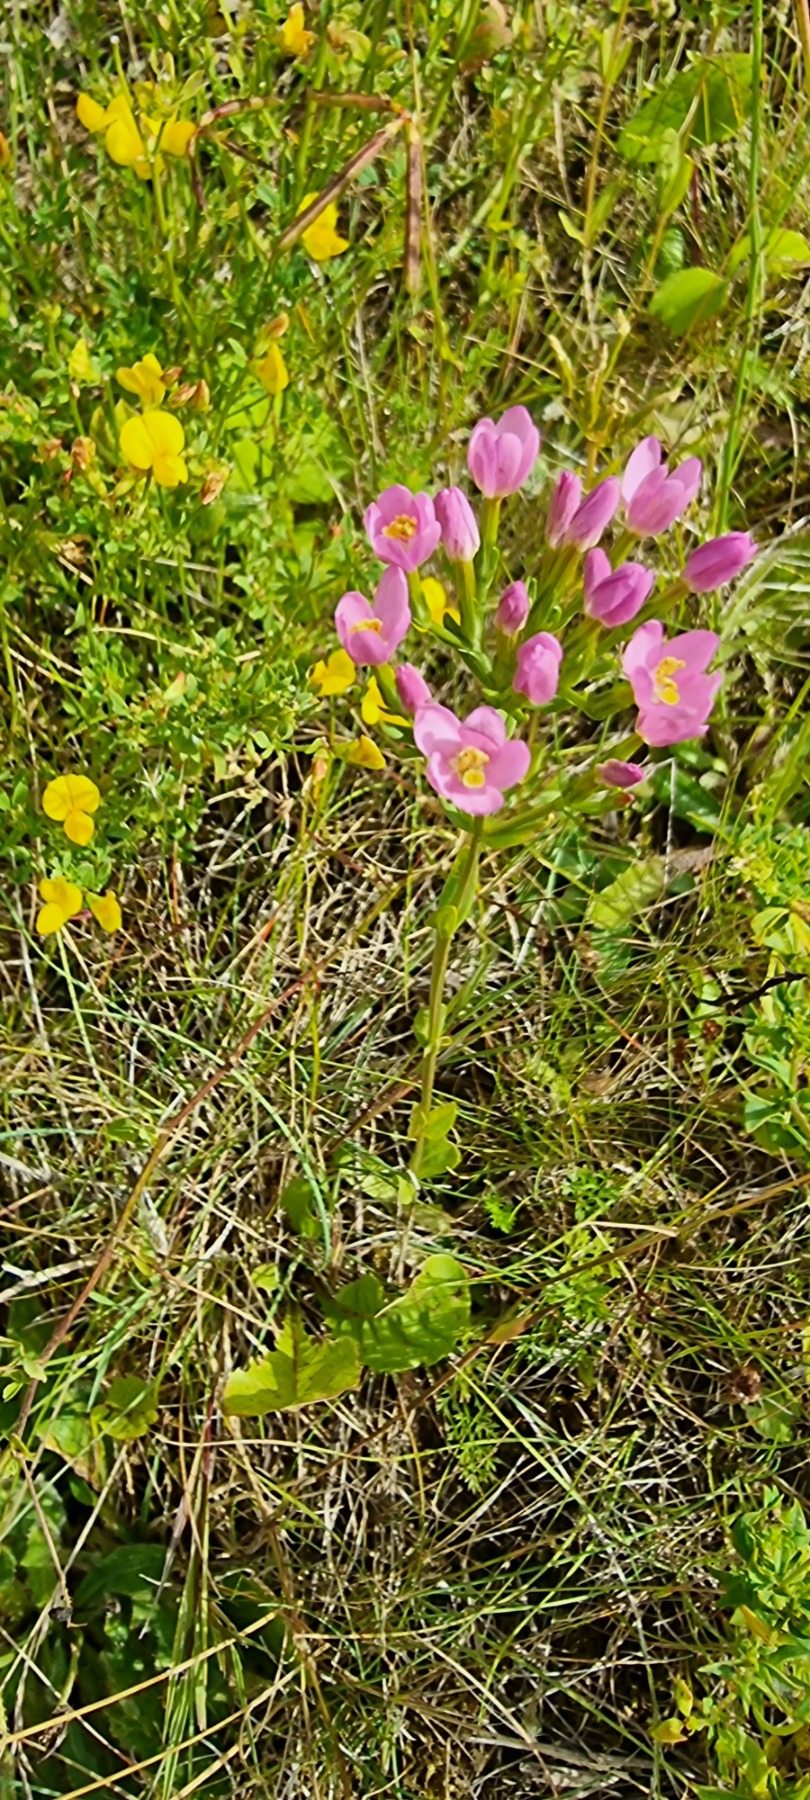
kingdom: Plantae
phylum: Tracheophyta
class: Magnoliopsida
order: Gentianales
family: Gentianaceae
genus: Centaurium
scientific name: Centaurium erythraea
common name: Mark-tusindgylden
